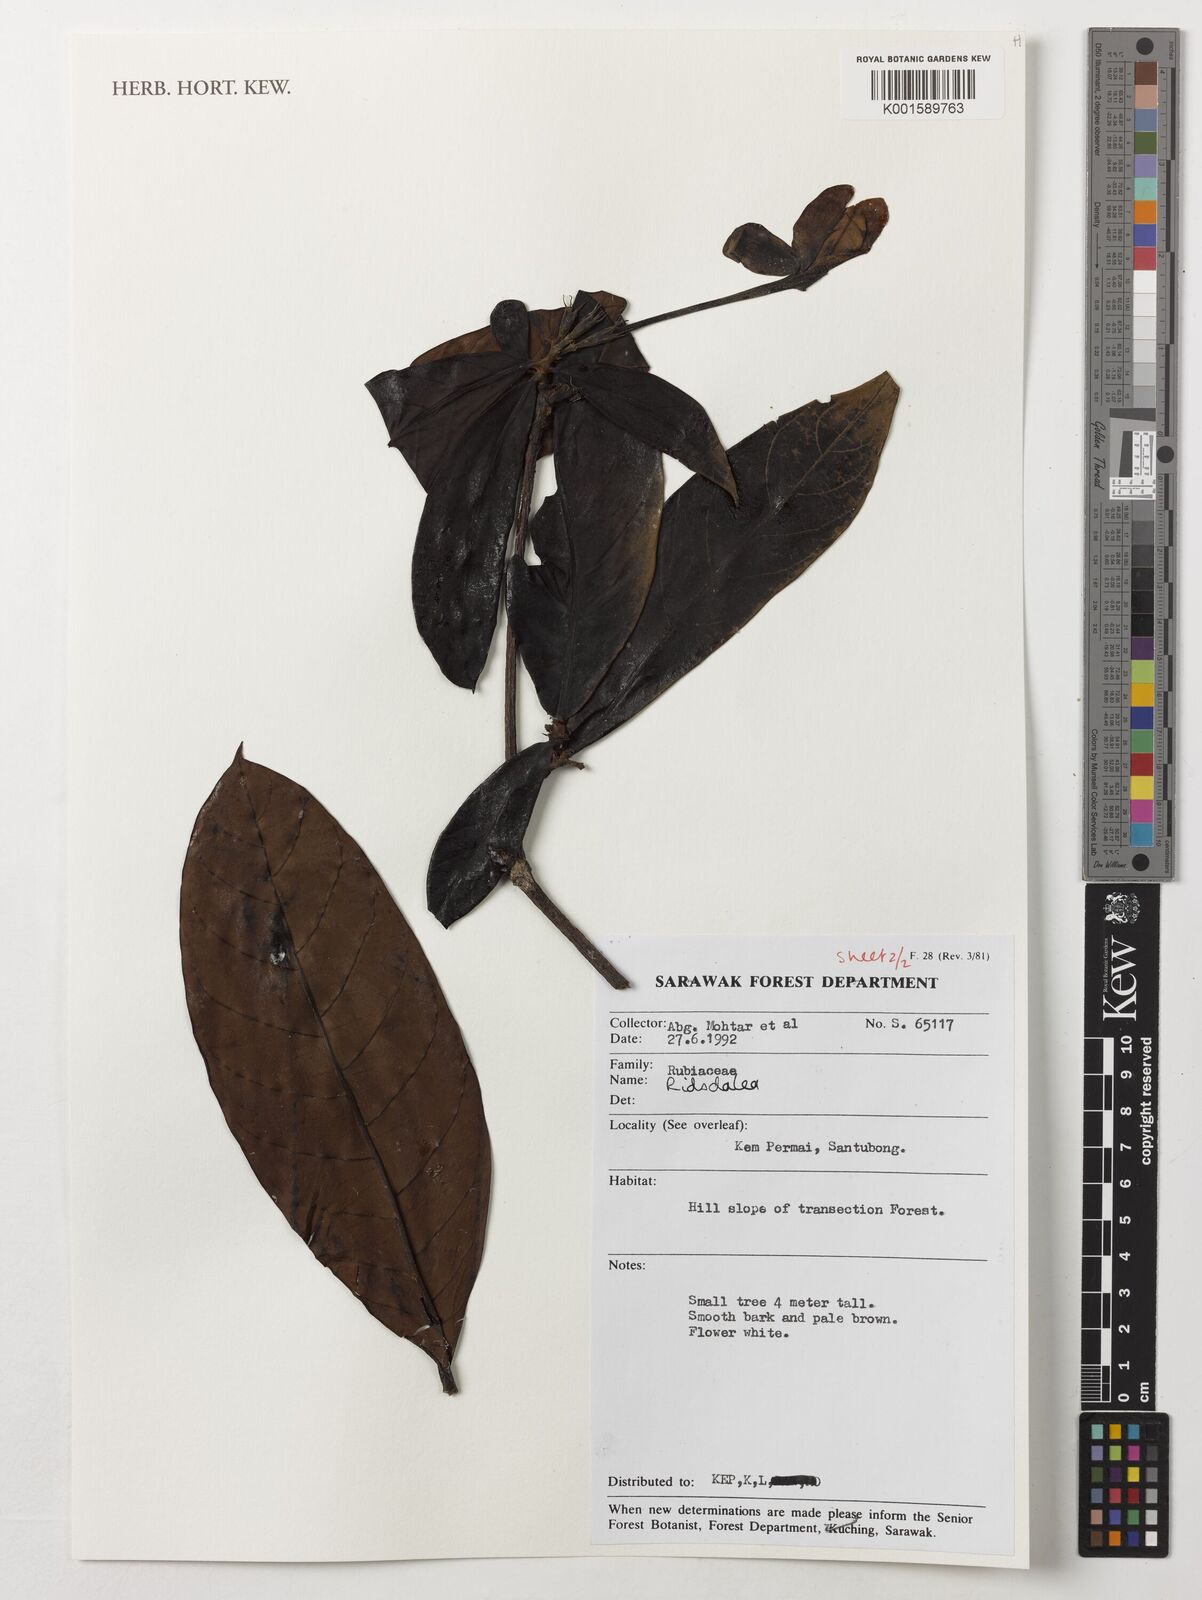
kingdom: Plantae
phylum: Tracheophyta
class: Magnoliopsida
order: Gentianales
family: Rubiaceae
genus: Ridsdalea
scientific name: Ridsdalea
